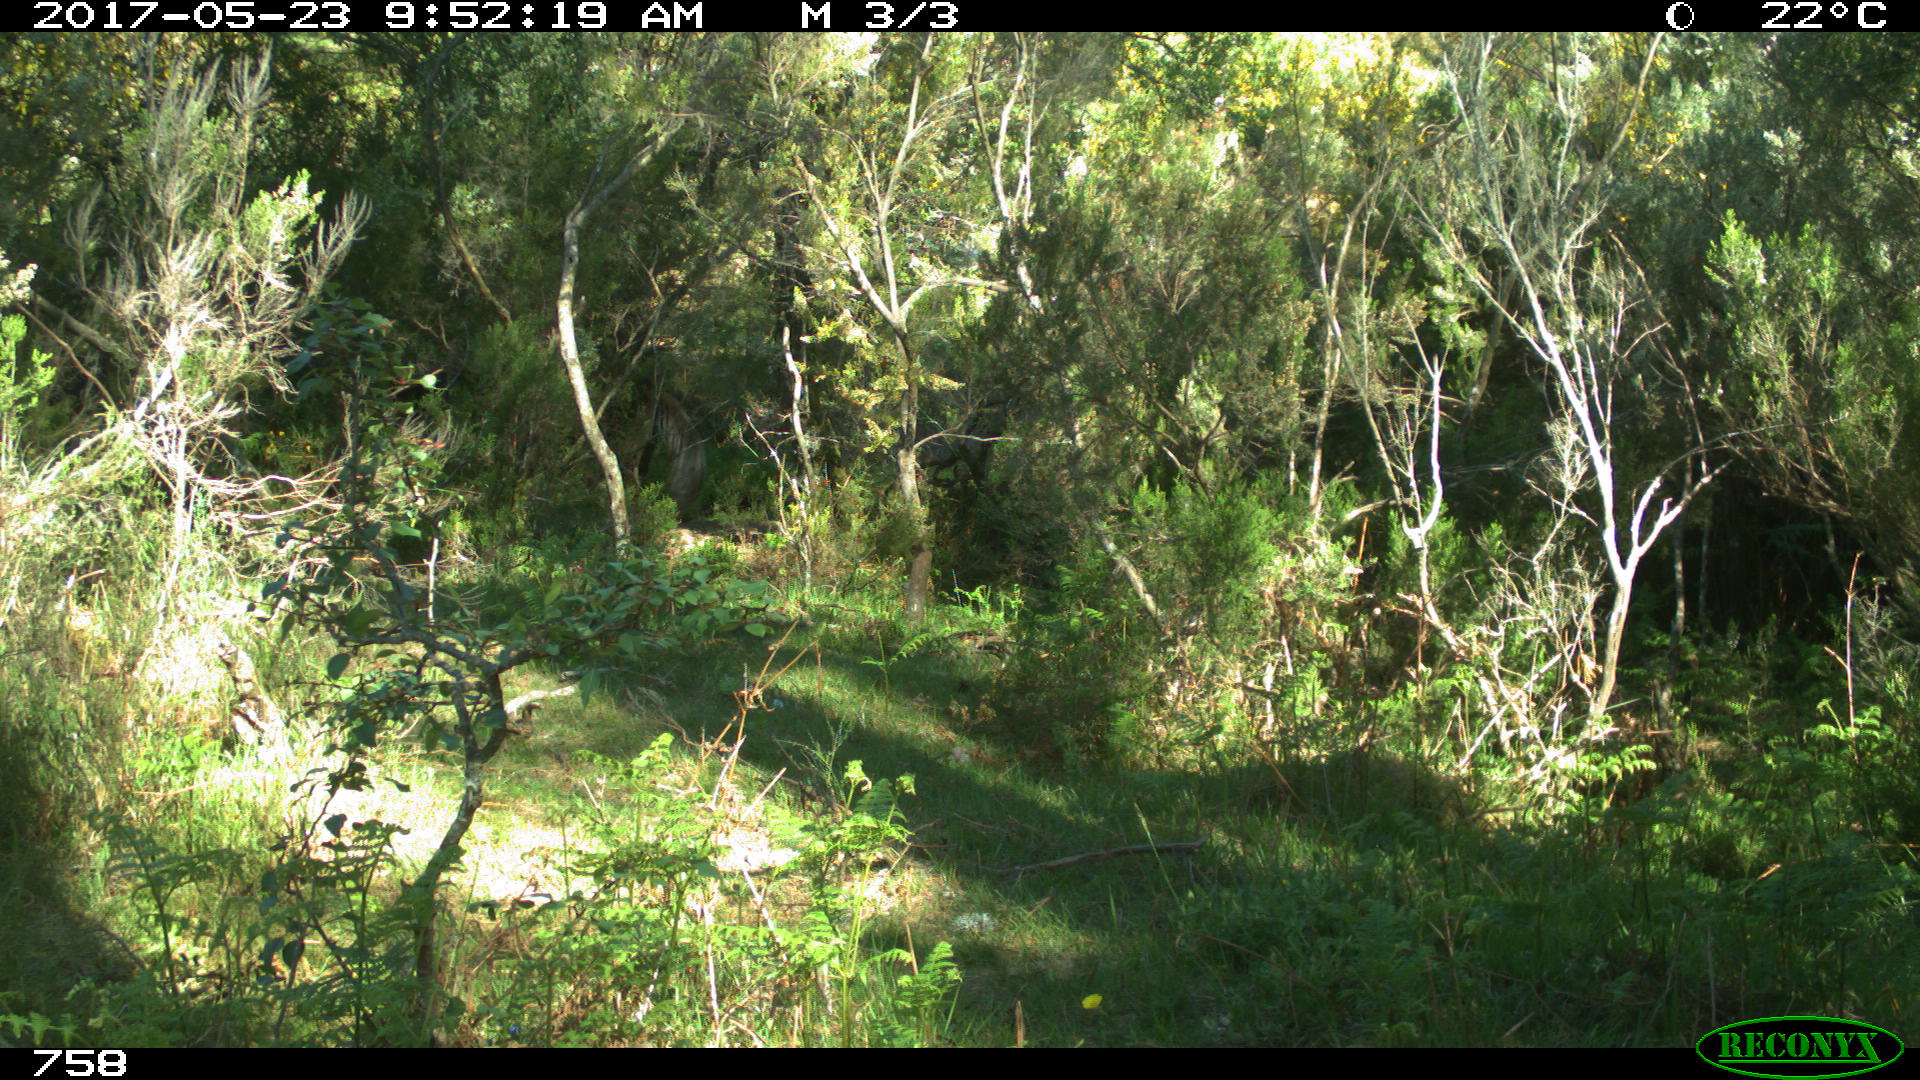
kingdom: Animalia
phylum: Chordata
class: Mammalia
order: Perissodactyla
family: Equidae
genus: Equus
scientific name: Equus caballus
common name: Horse
